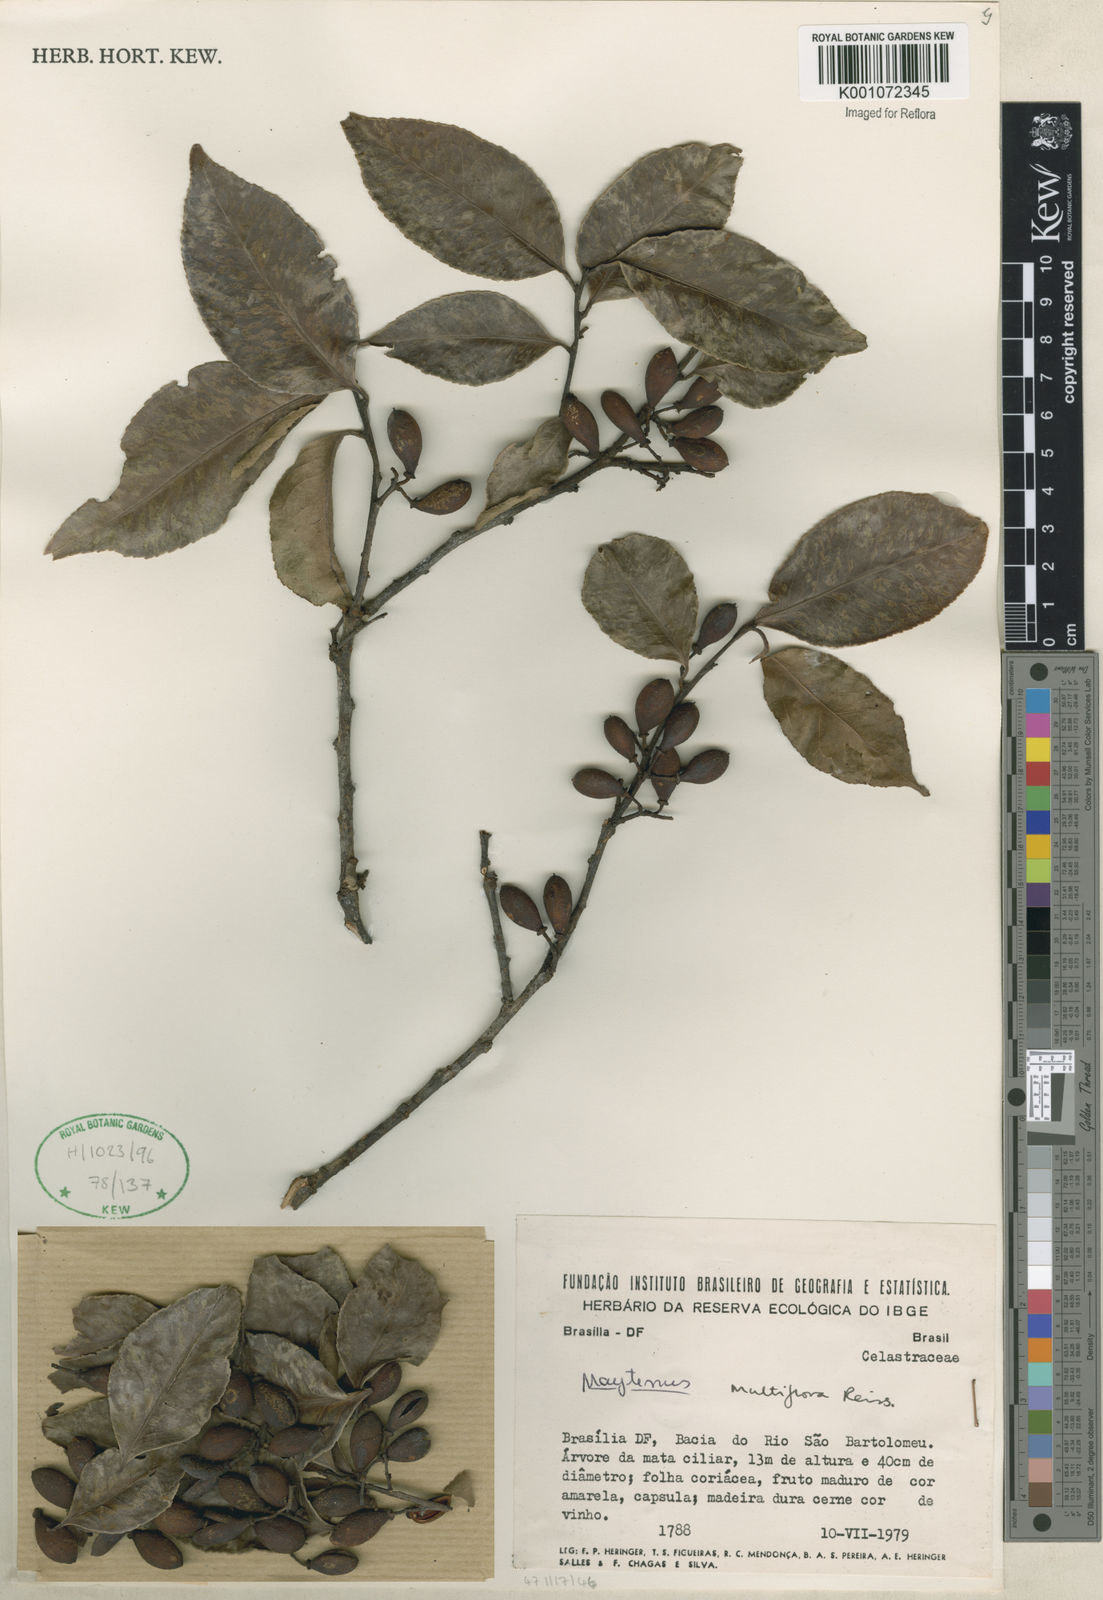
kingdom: Plantae
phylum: Tracheophyta
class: Magnoliopsida
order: Celastrales
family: Celastraceae
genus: Monteverdia
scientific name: Monteverdia macrocarpa
